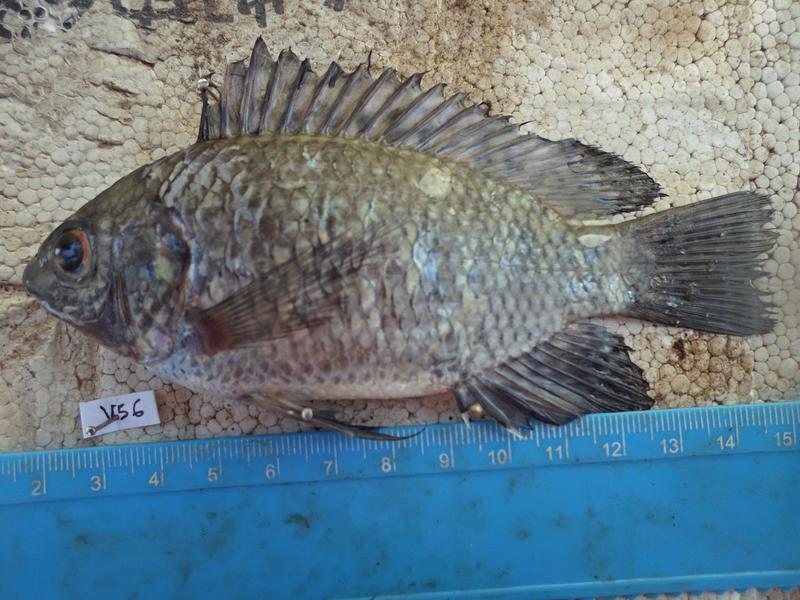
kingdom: Animalia
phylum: Chordata
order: Perciformes
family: Cichlidae
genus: Oreochromis
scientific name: Oreochromis leucostictus
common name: Blue spotted tilapia
